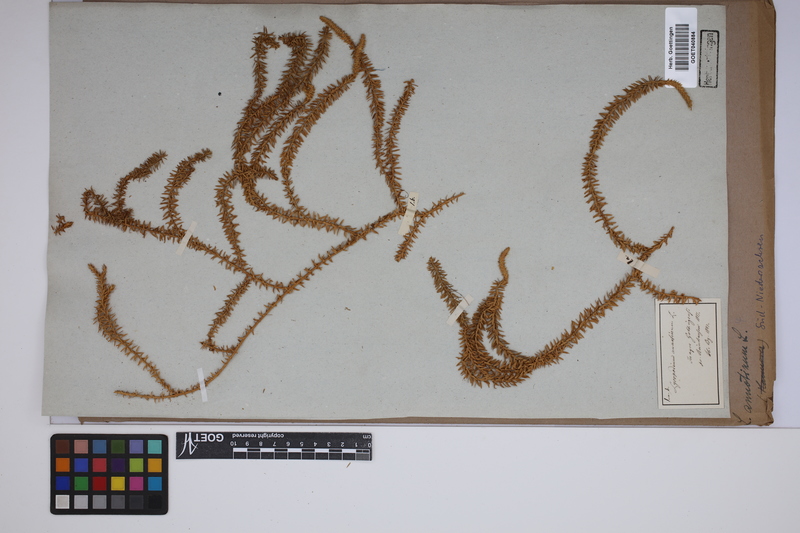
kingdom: Plantae
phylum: Tracheophyta
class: Lycopodiopsida
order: Lycopodiales
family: Lycopodiaceae
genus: Spinulum
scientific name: Spinulum annotinum
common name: Interrupted club-moss
